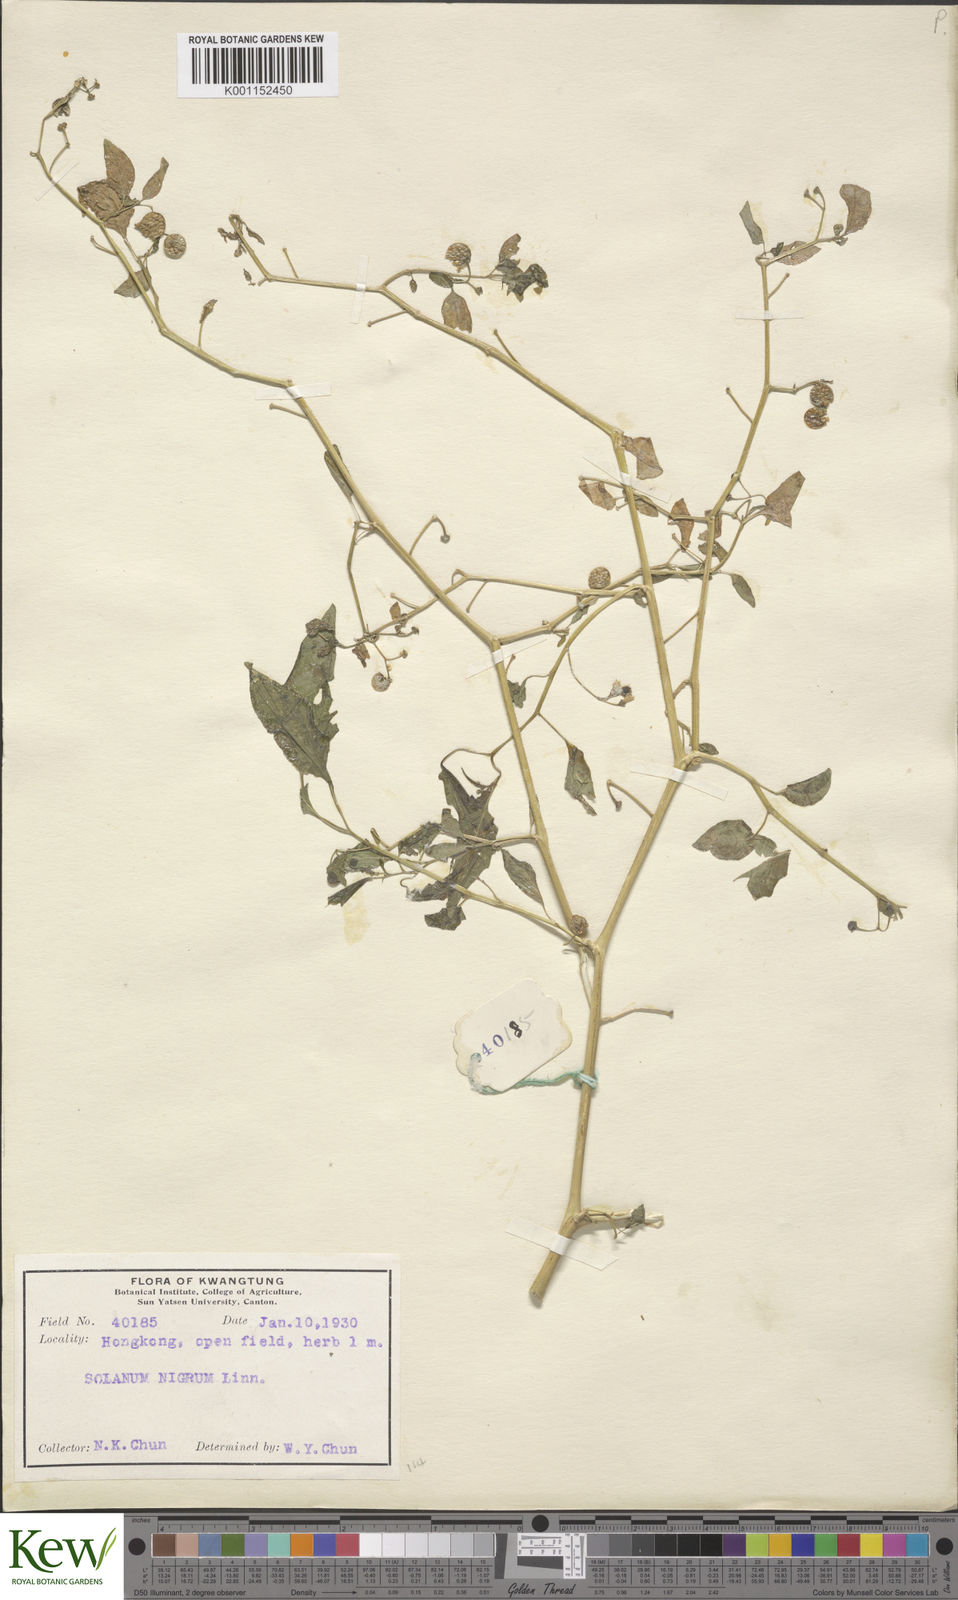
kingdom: Plantae
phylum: Tracheophyta
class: Magnoliopsida
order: Solanales
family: Solanaceae
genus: Solanum
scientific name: Solanum americanum
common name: American black nightshade
